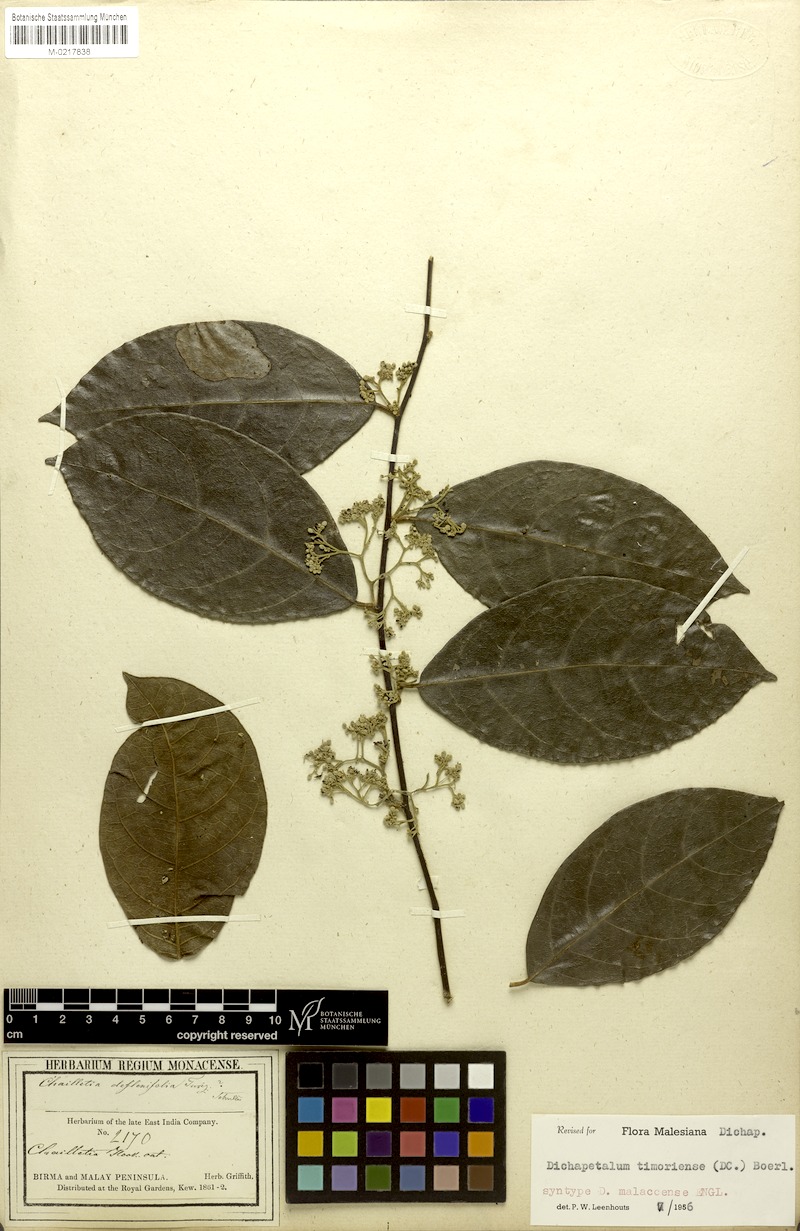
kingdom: Plantae
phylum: Tracheophyta
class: Magnoliopsida
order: Malpighiales
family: Dichapetalaceae
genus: Dichapetalum
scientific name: Dichapetalum timoriense
